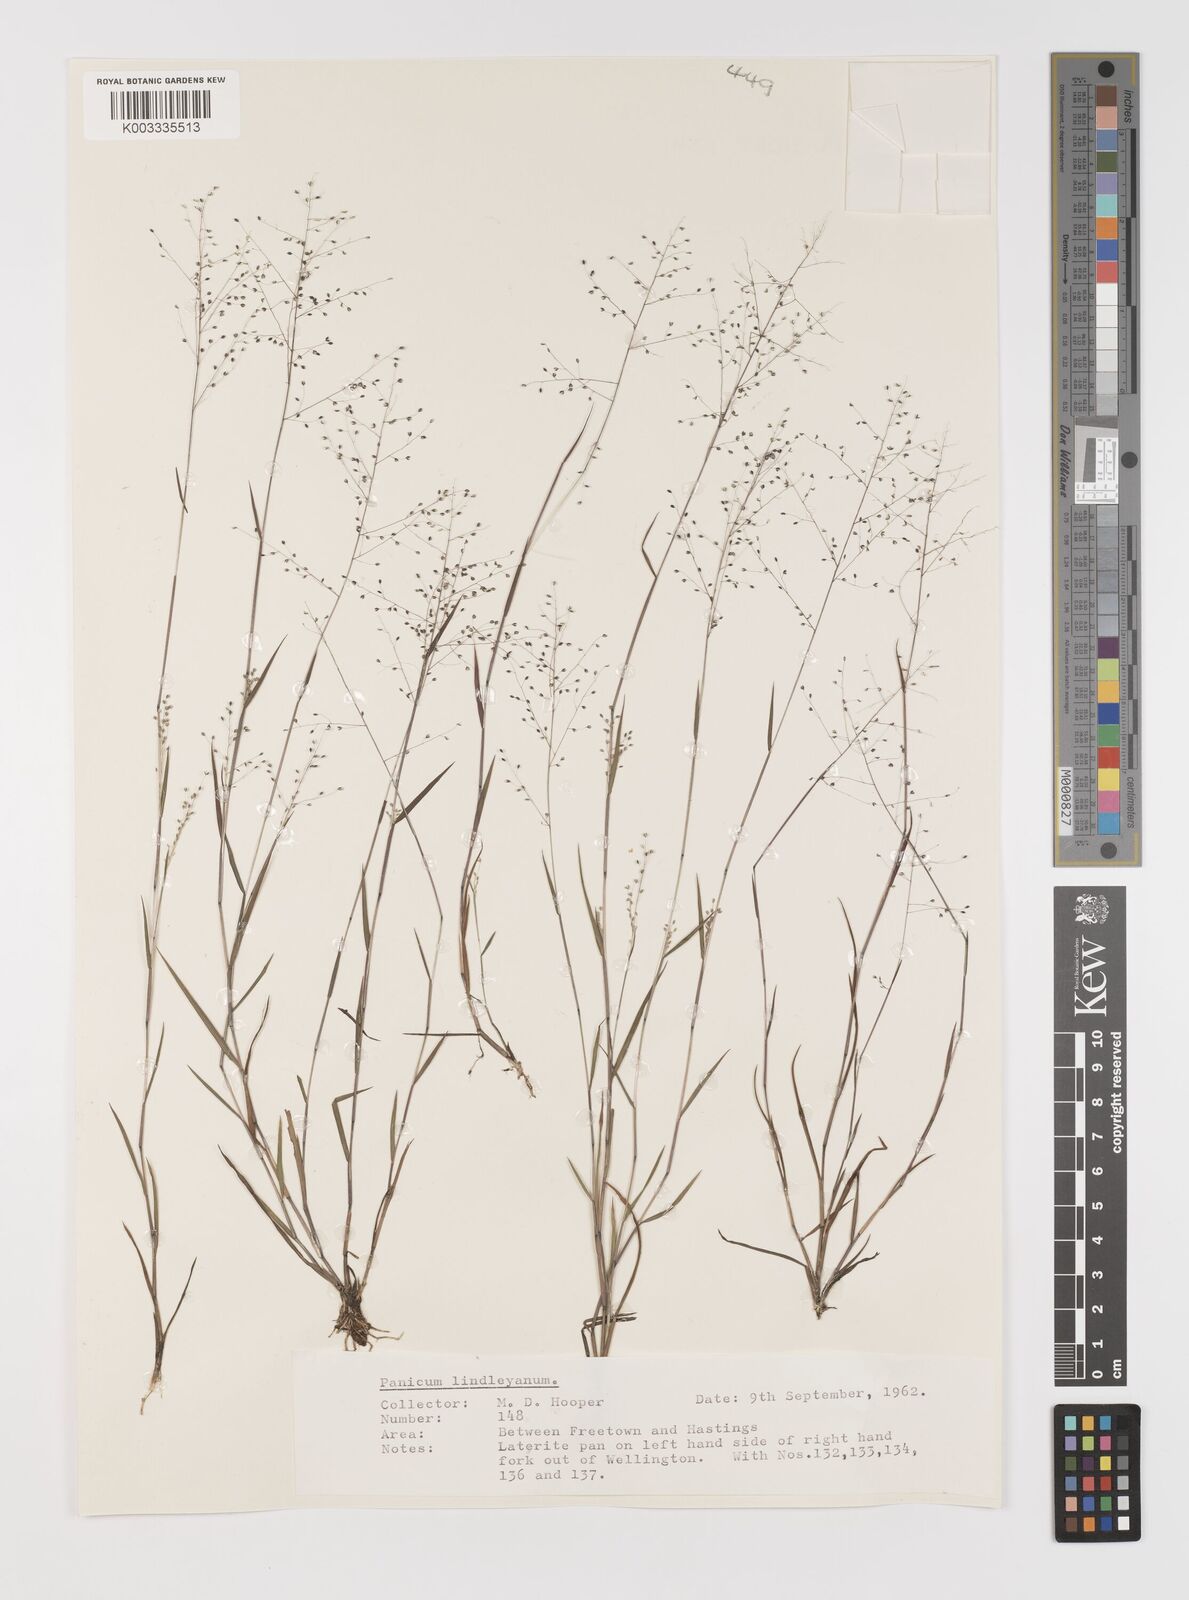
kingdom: Plantae
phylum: Tracheophyta
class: Liliopsida
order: Poales
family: Poaceae
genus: Trichanthecium
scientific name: Trichanthecium tenellum
